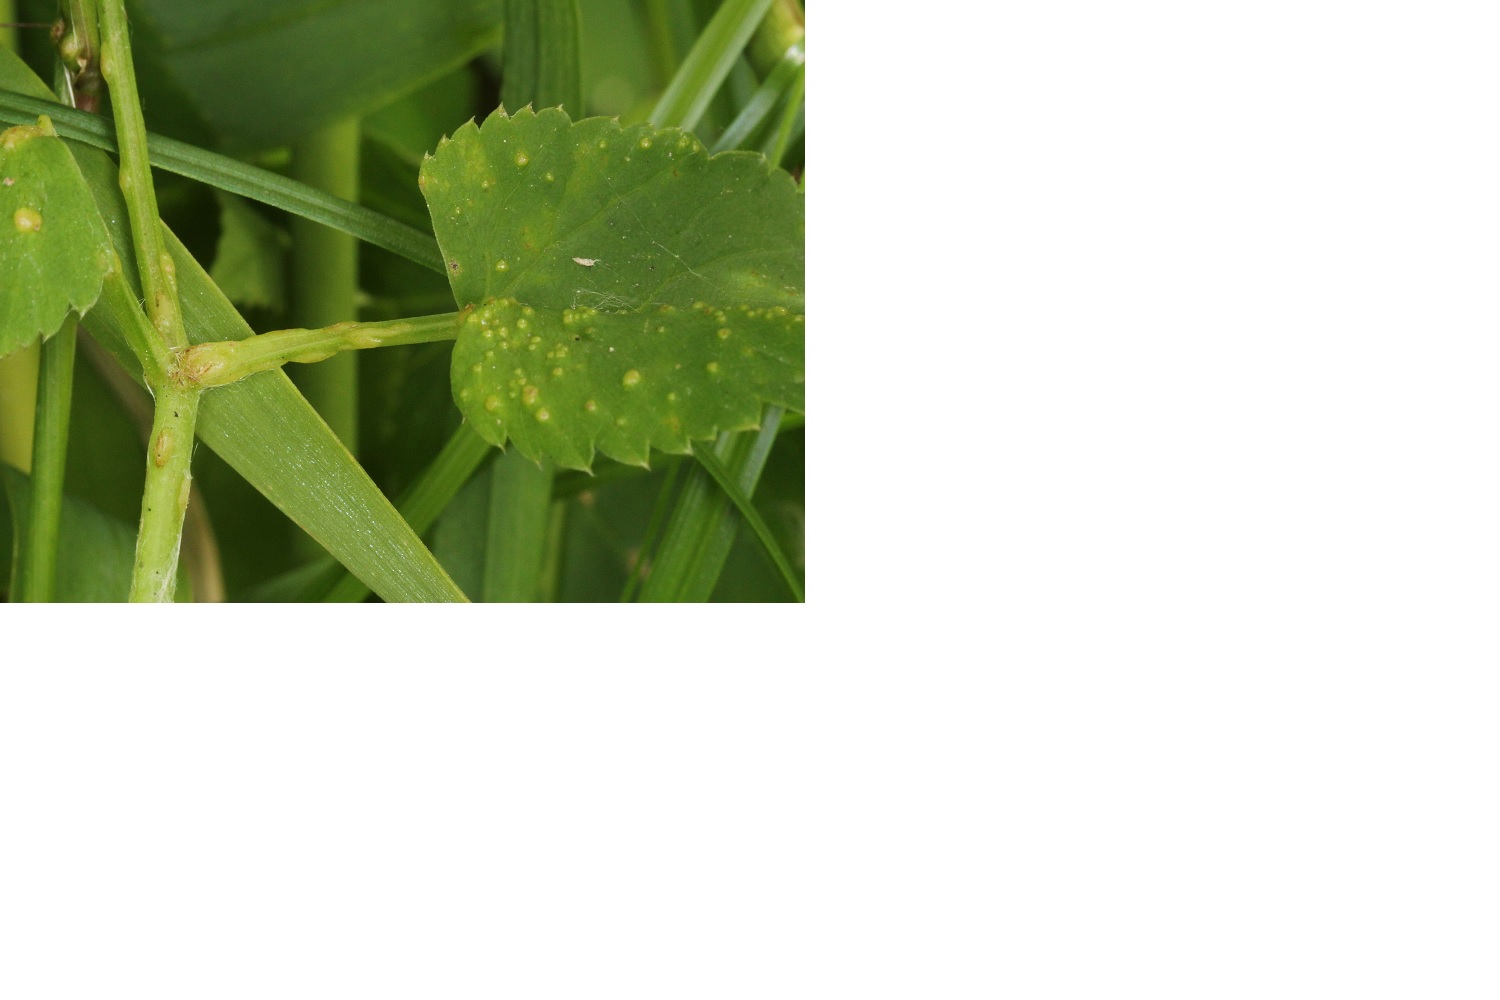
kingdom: Fungi
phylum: Ascomycota
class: Taphrinomycetes
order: Taphrinales
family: Taphrinaceae
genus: Protomyces
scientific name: Protomyces macrosporus
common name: skvalderkål-vablesæk
